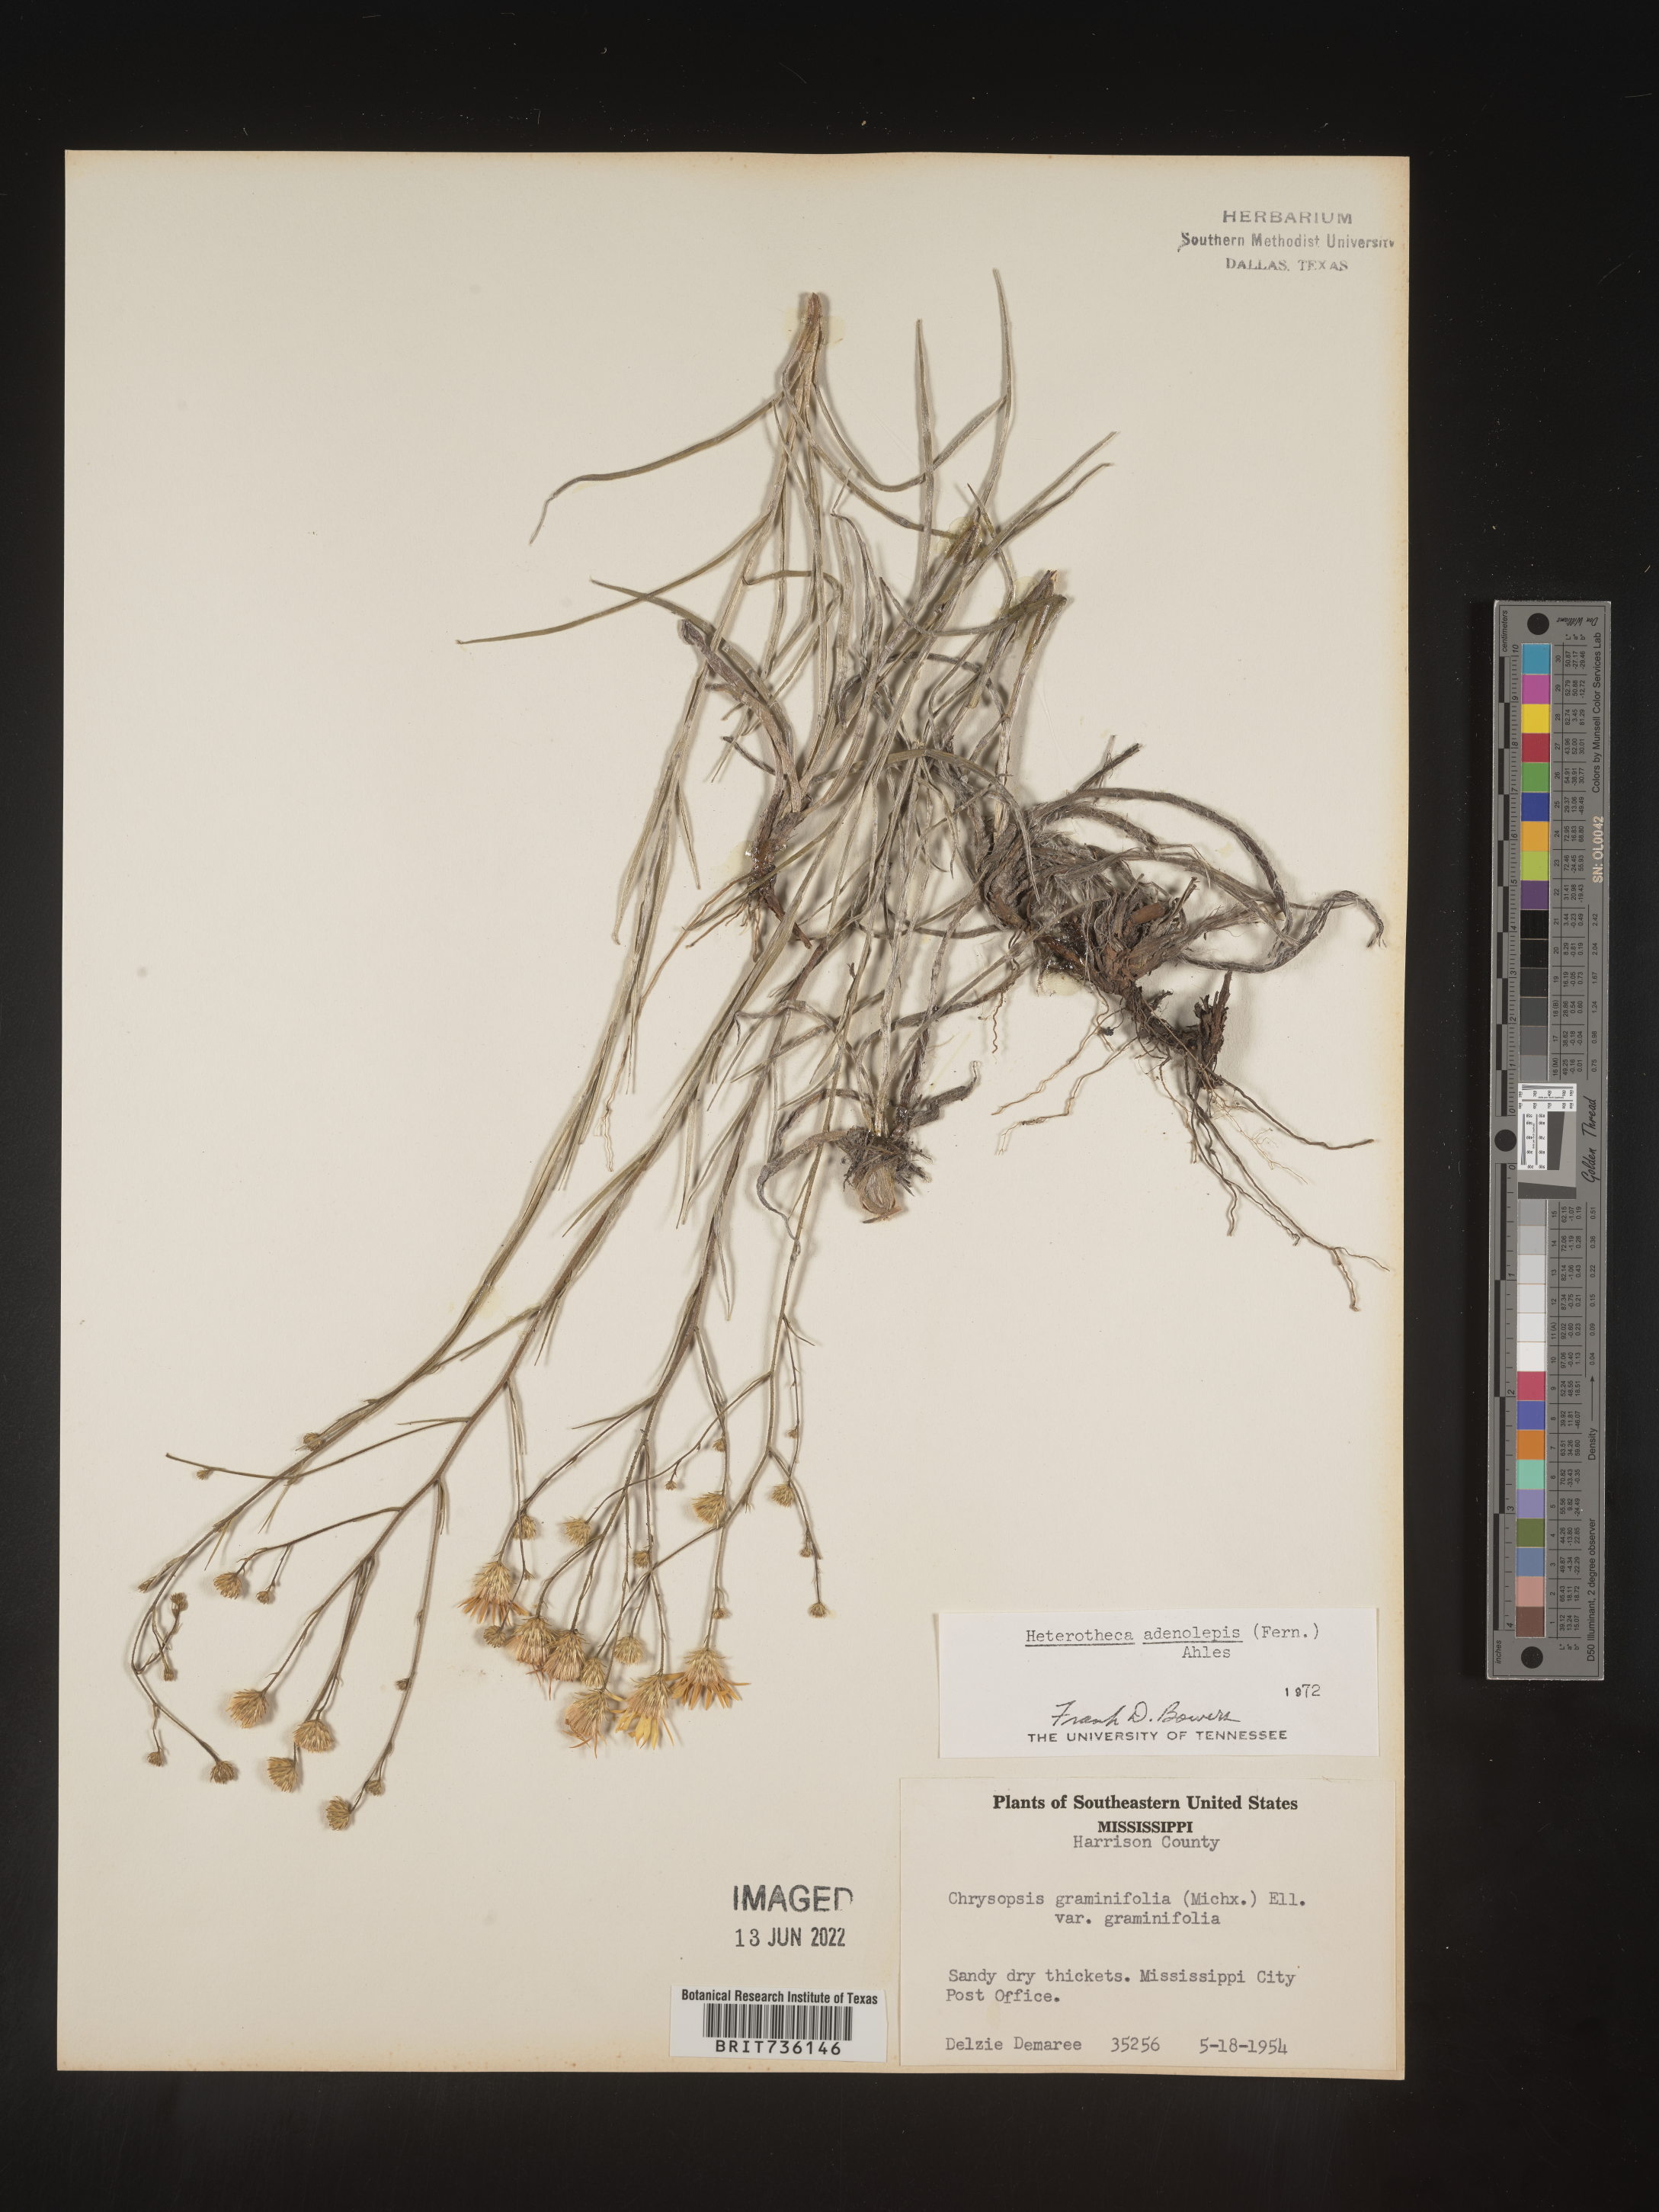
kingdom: Plantae
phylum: Tracheophyta
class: Magnoliopsida
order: Asterales
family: Asteraceae
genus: Pityopsis
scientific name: Pityopsis aspera
